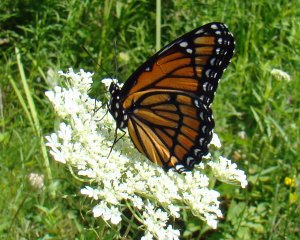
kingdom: Animalia
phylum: Arthropoda
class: Insecta
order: Lepidoptera
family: Nymphalidae
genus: Limenitis
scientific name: Limenitis archippus
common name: Viceroy
